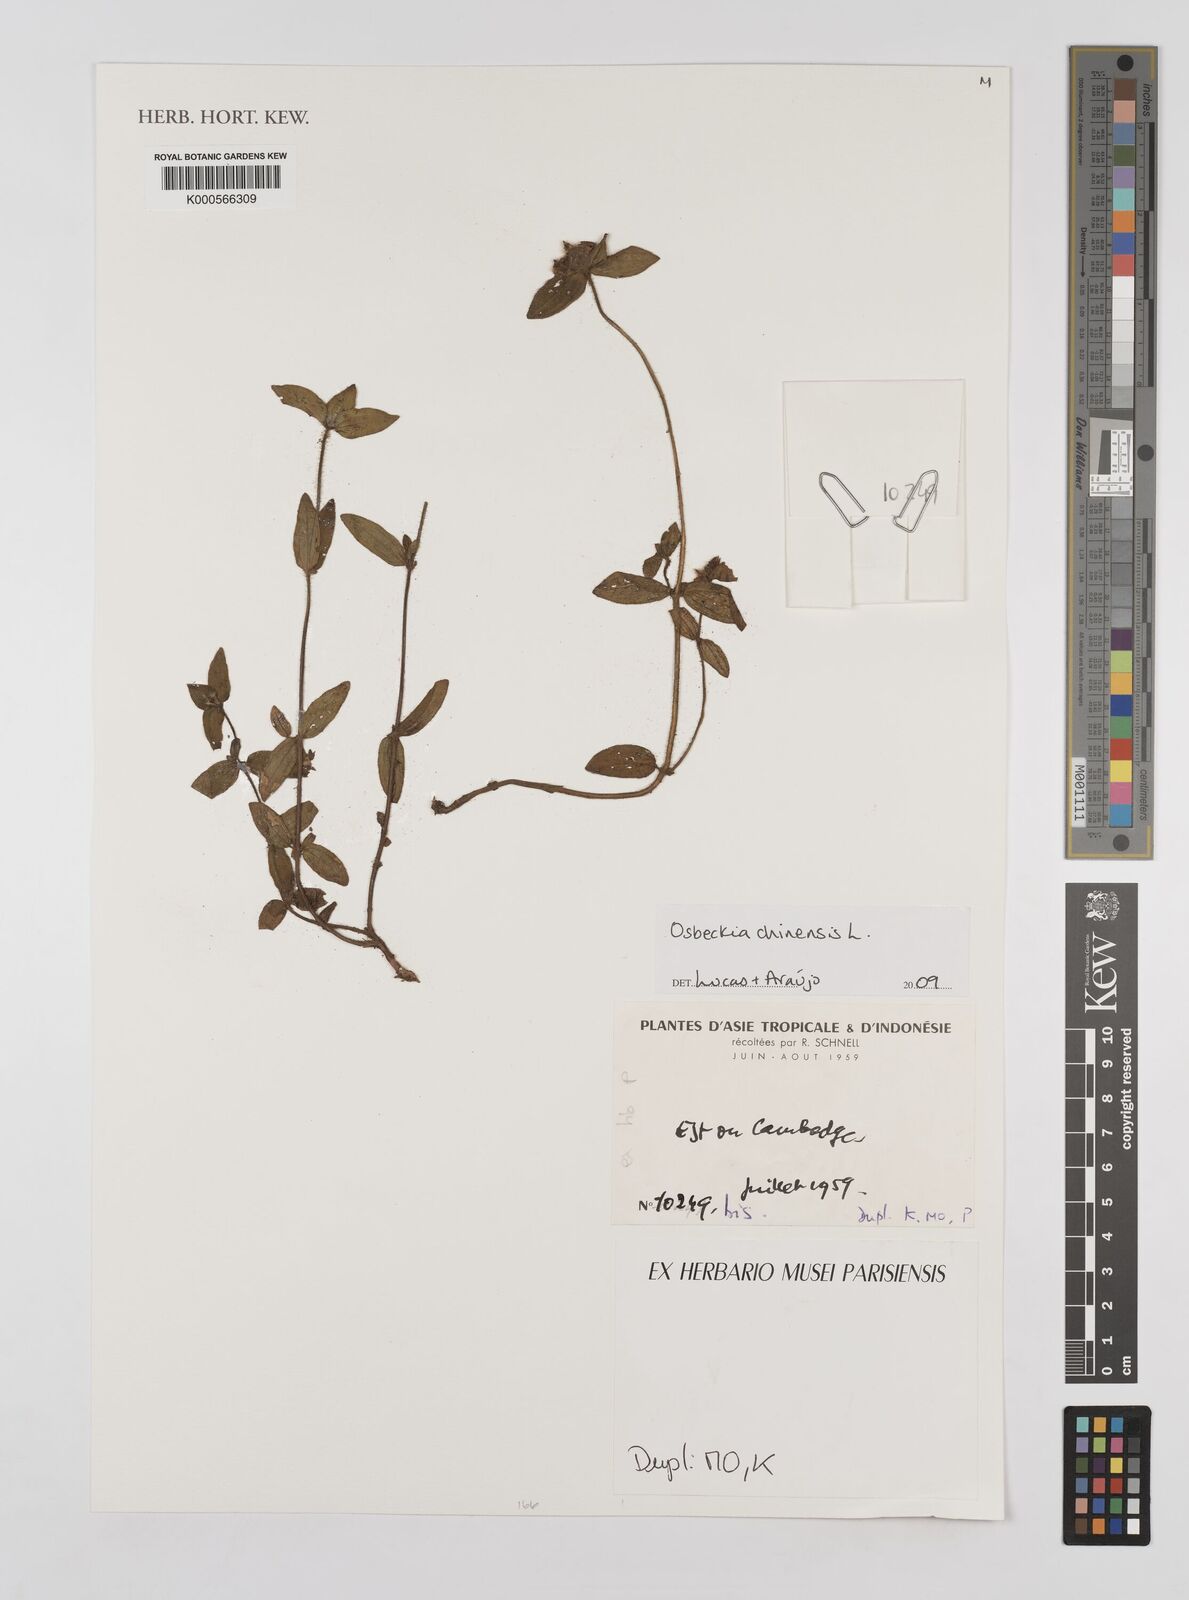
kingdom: Plantae
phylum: Tracheophyta
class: Magnoliopsida
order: Myrtales
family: Melastomataceae
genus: Osbeckia
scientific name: Osbeckia chinensis
